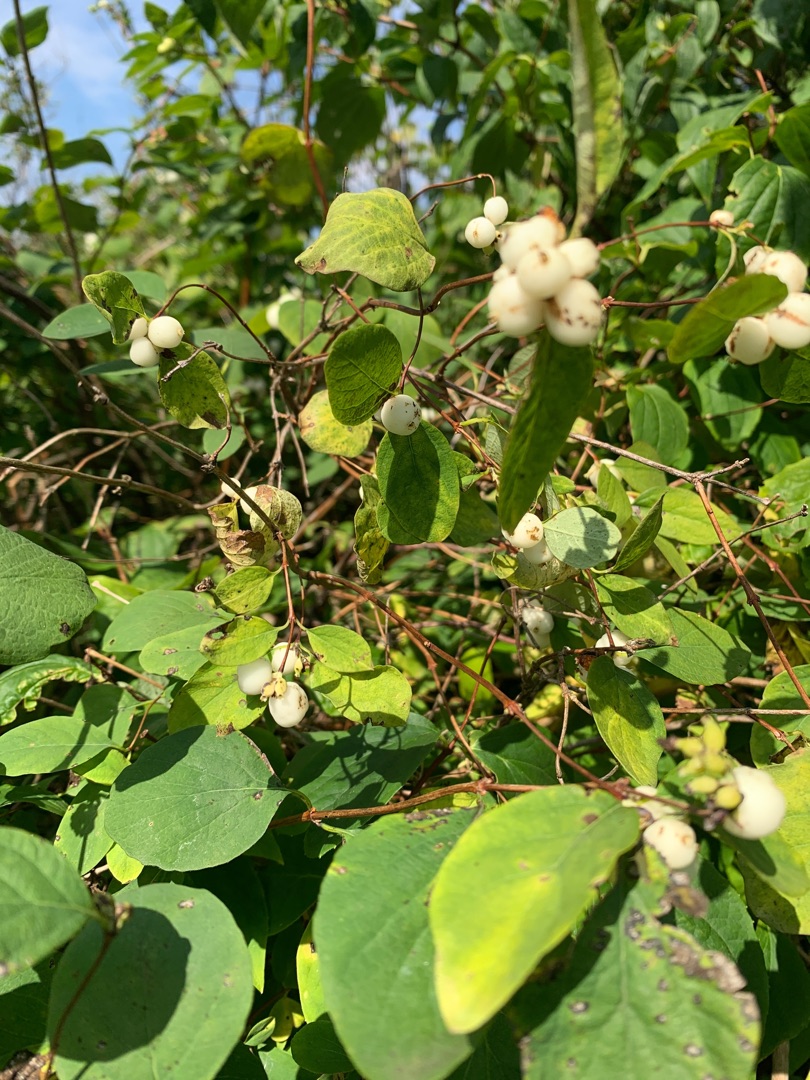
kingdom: Plantae
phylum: Tracheophyta
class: Magnoliopsida
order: Dipsacales
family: Caprifoliaceae
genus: Symphoricarpos
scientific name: Symphoricarpos albus
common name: Almindelig snebær
